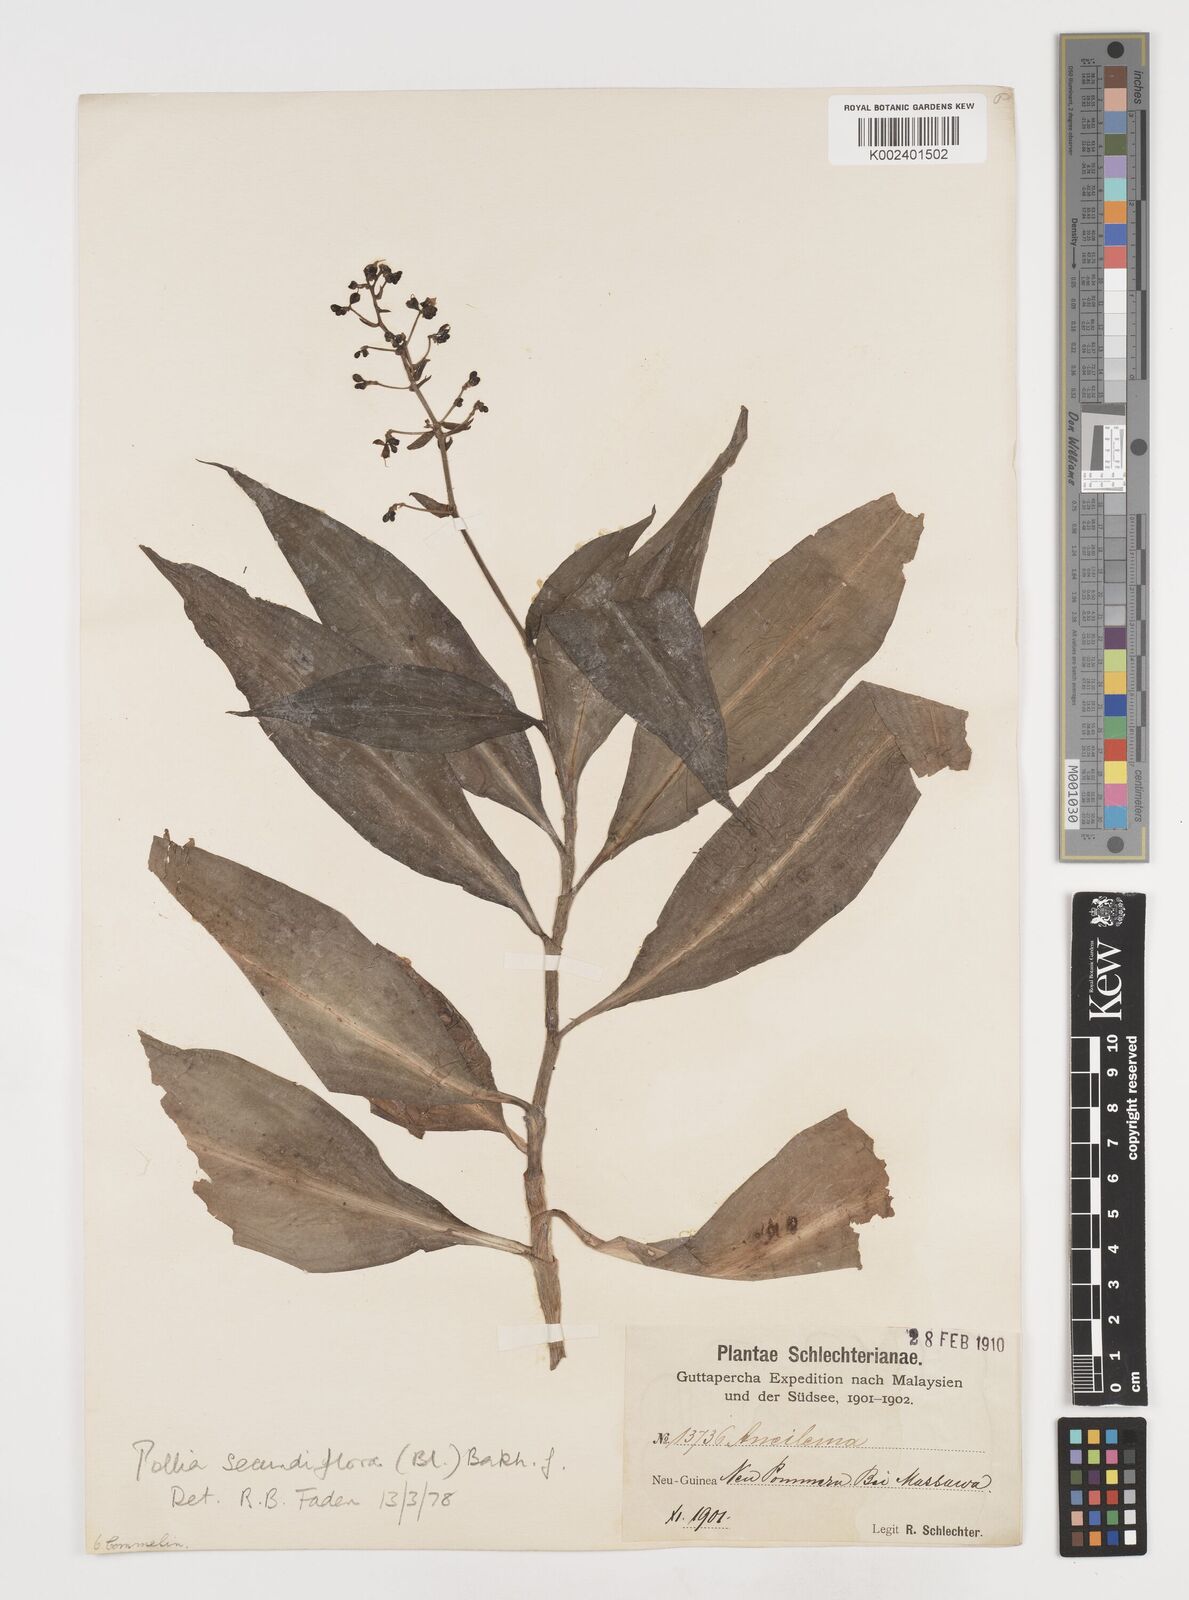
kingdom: Plantae
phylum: Tracheophyta
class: Liliopsida
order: Commelinales
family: Commelinaceae
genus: Pollia
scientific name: Pollia secundiflora
